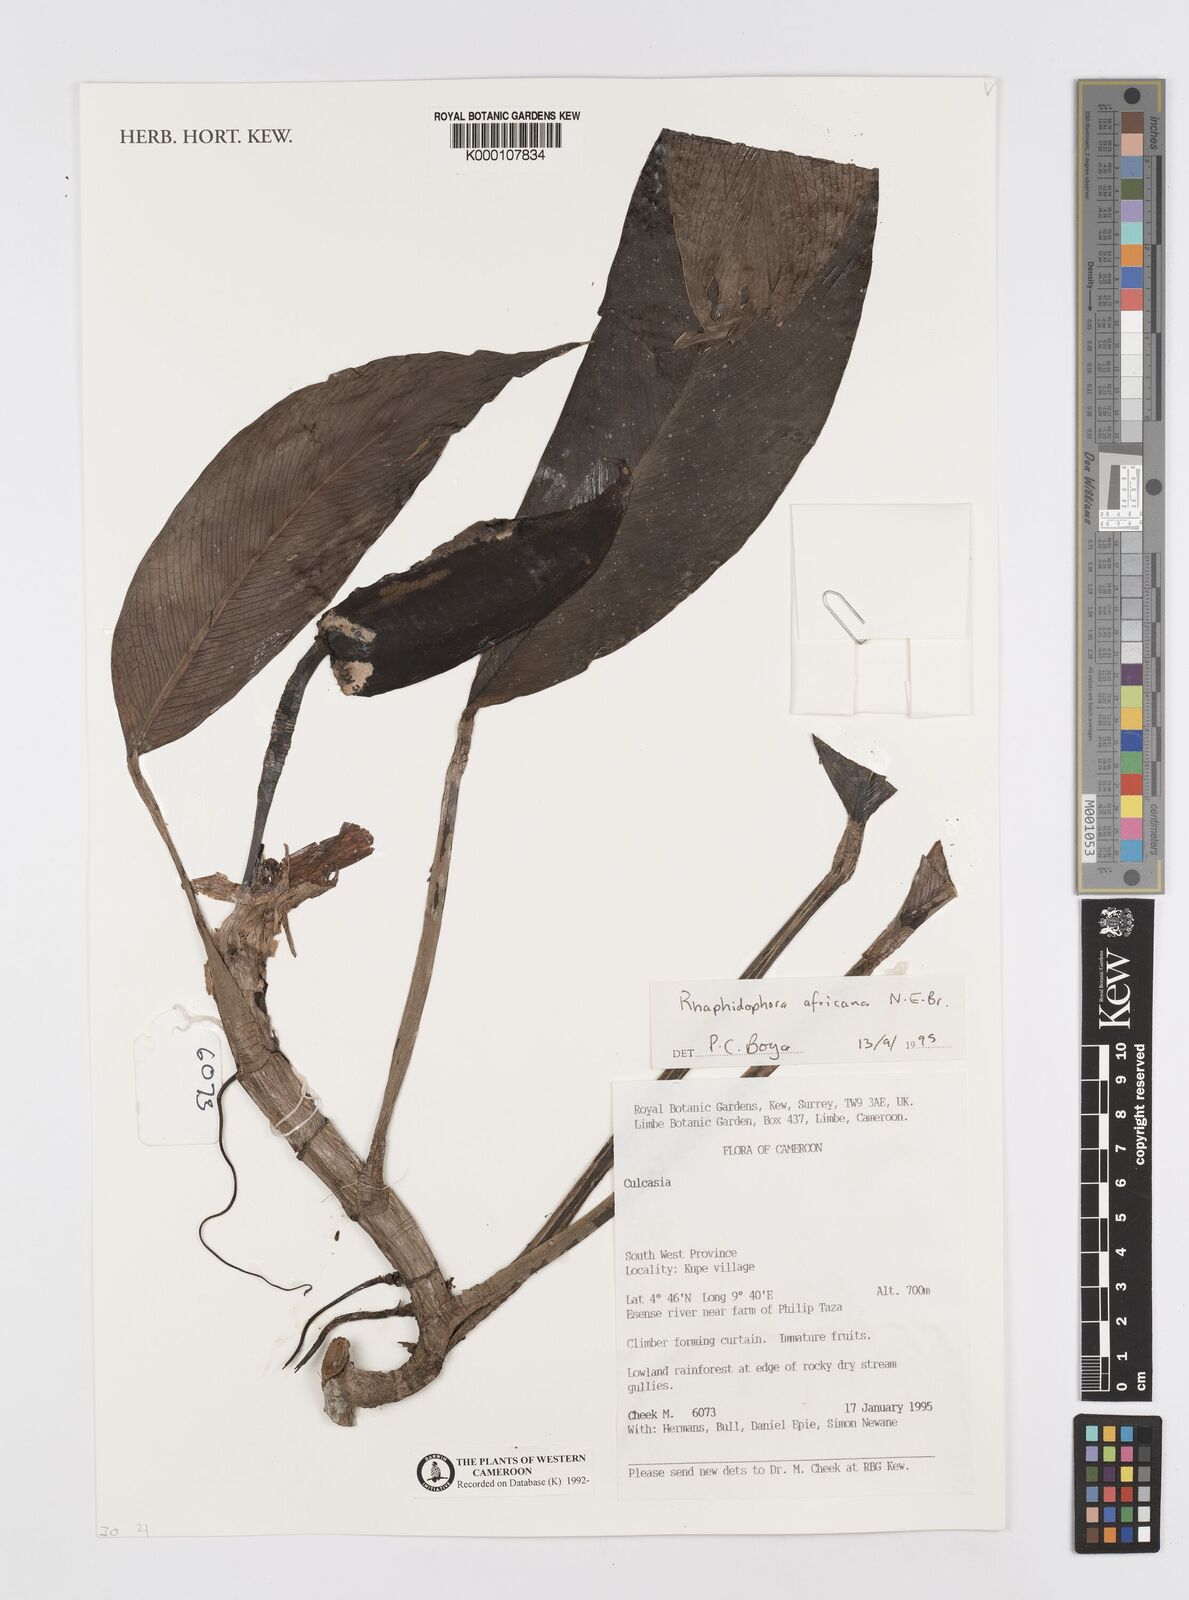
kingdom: Plantae
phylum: Tracheophyta
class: Liliopsida
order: Alismatales
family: Araceae
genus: Rhaphidophora
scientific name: Rhaphidophora africana
